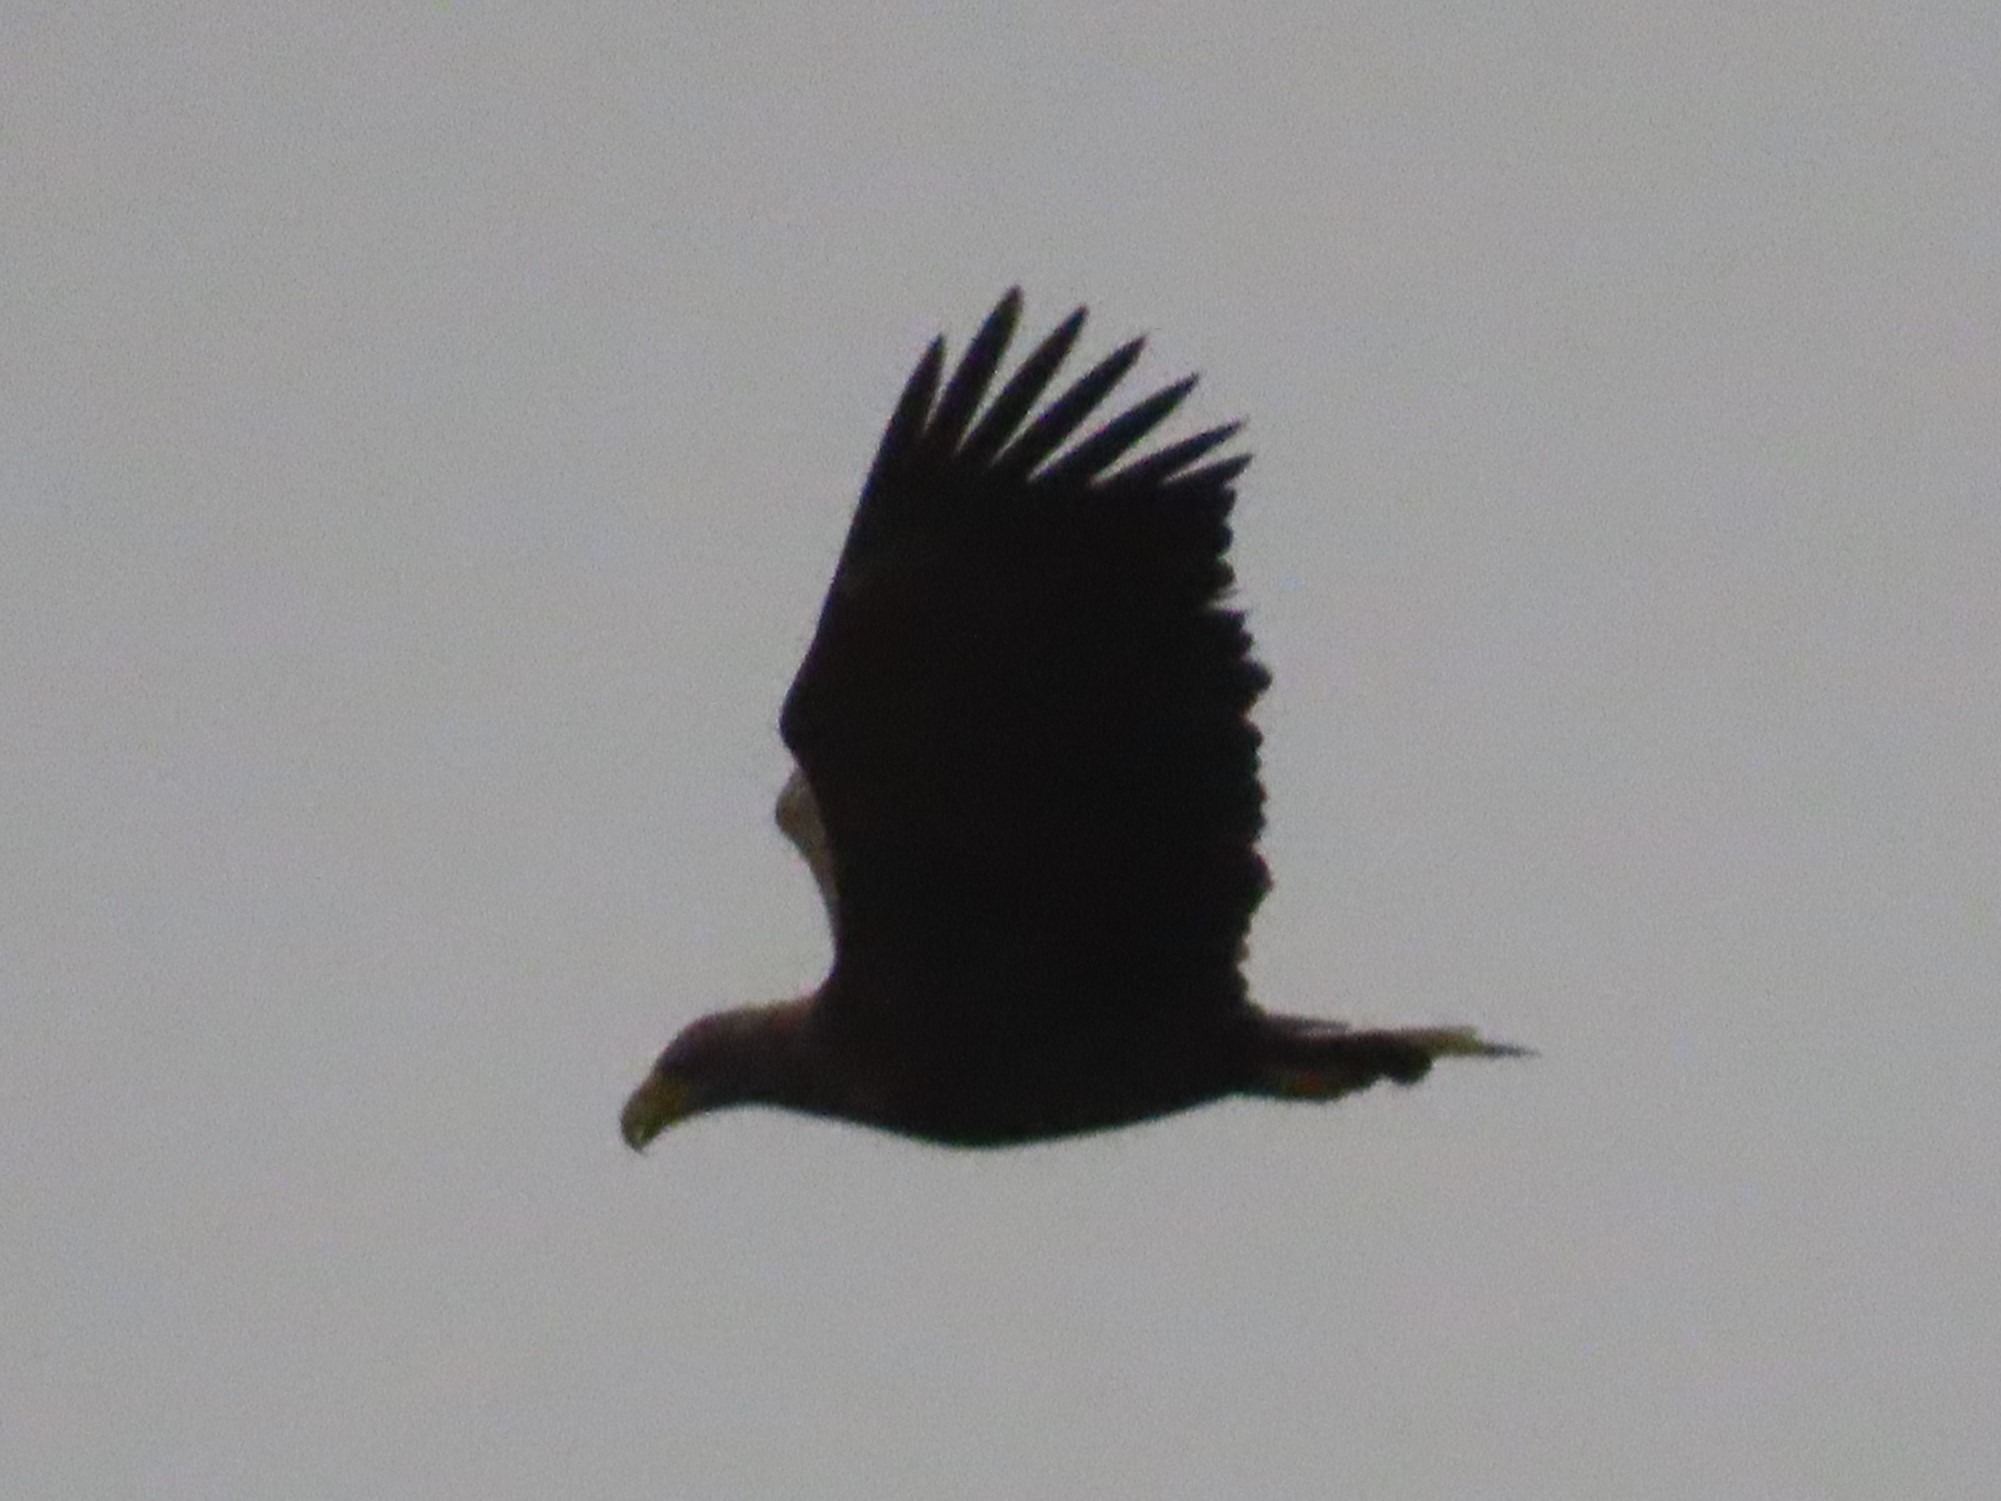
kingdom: Animalia
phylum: Chordata
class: Aves
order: Accipitriformes
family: Accipitridae
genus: Haliaeetus
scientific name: Haliaeetus albicilla
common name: Havørn
